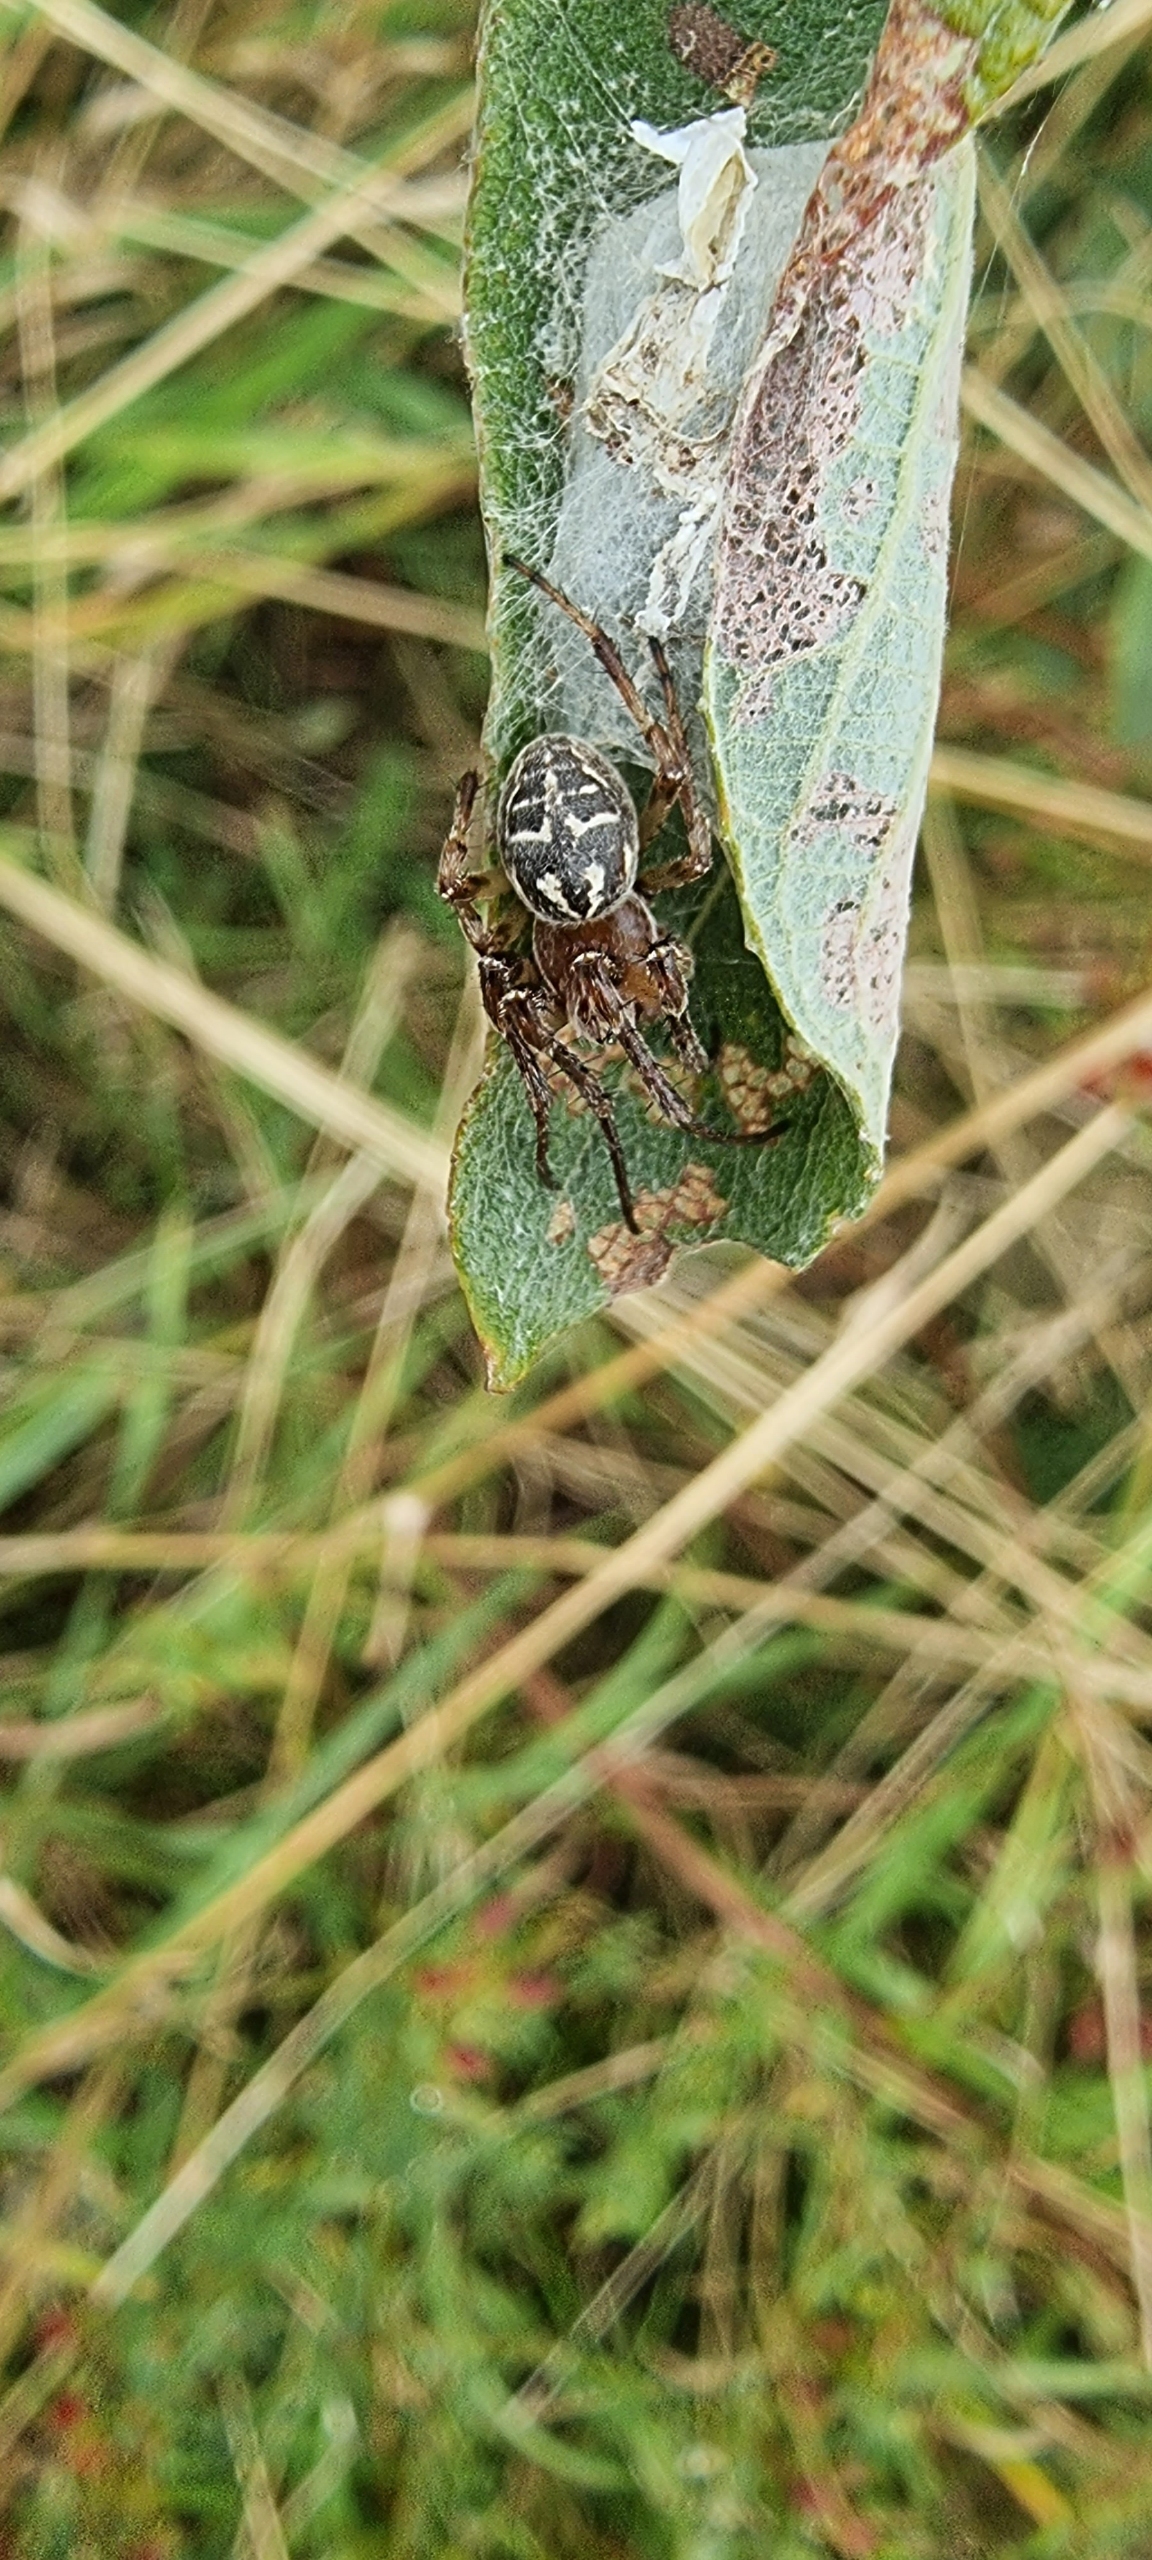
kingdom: Animalia
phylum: Arthropoda
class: Arachnida
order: Araneae
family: Araneidae
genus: Larinioides
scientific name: Larinioides cornutus
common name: Sivhjulspinder
